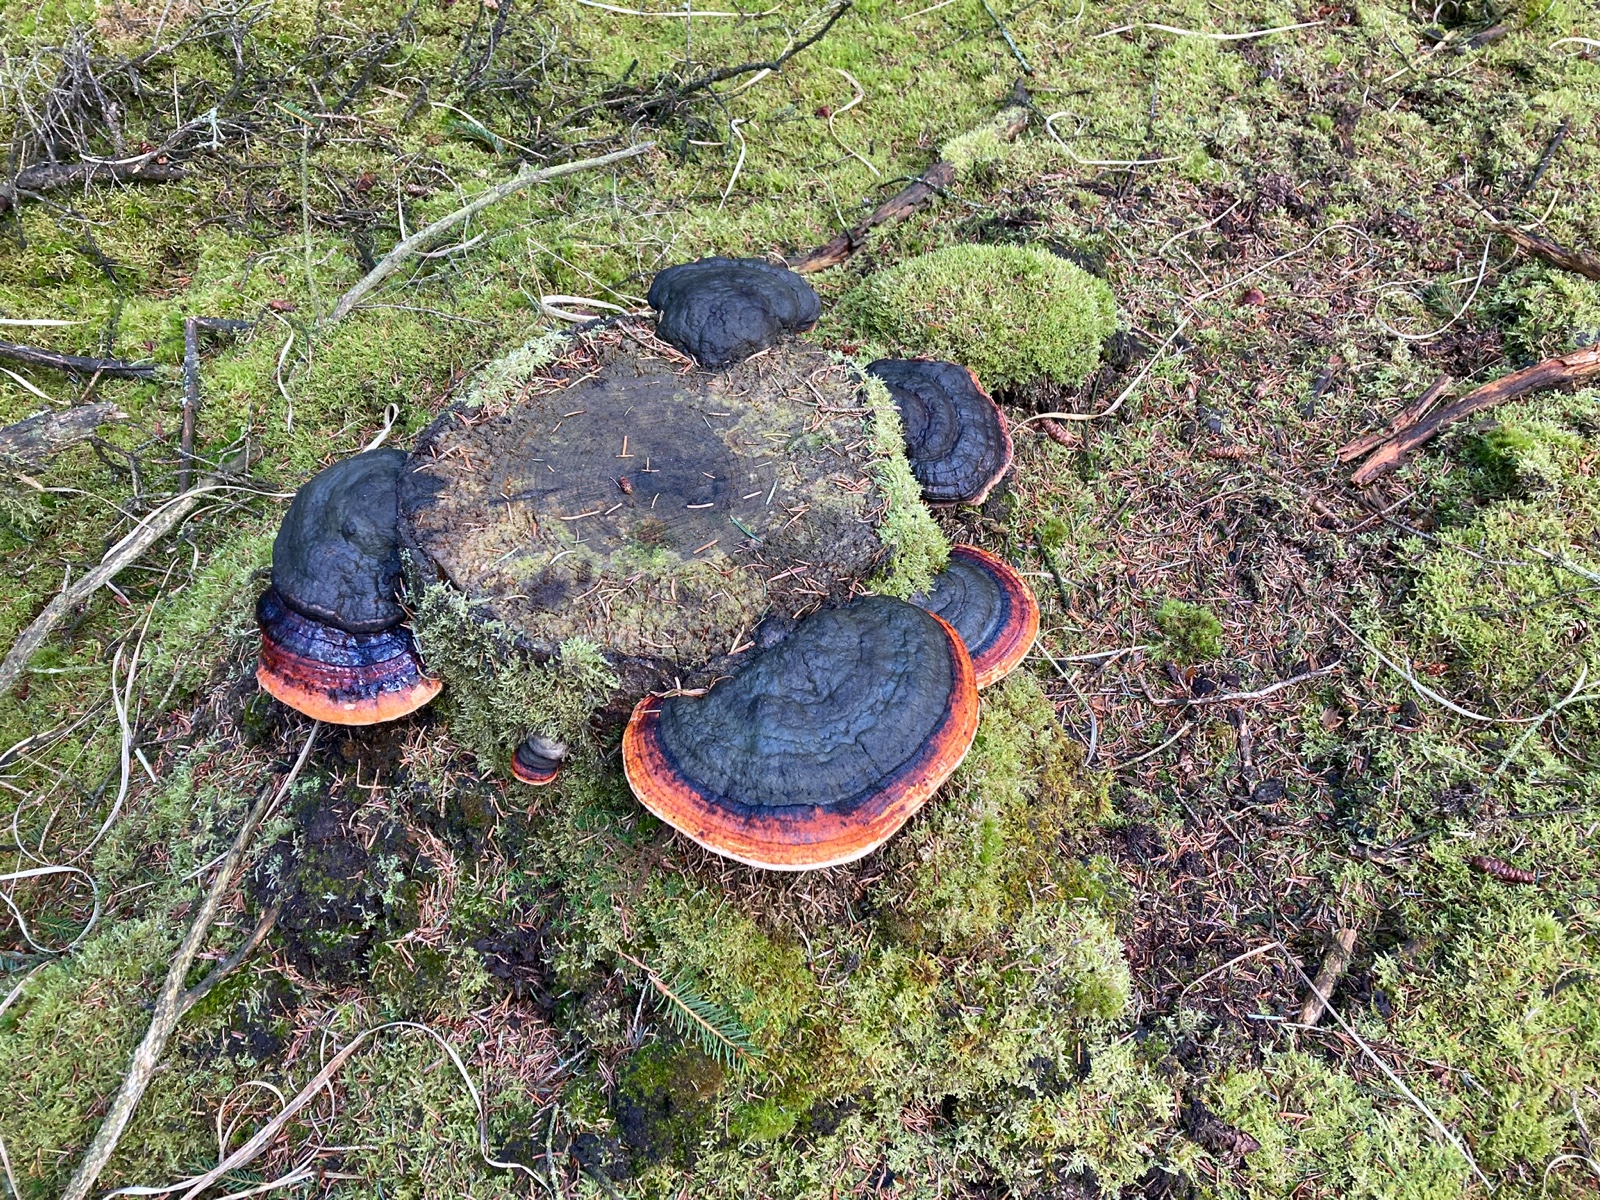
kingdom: Fungi
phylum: Basidiomycota
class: Agaricomycetes
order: Polyporales
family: Fomitopsidaceae
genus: Fomitopsis
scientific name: Fomitopsis pinicola
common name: randbæltet hovporesvamp
